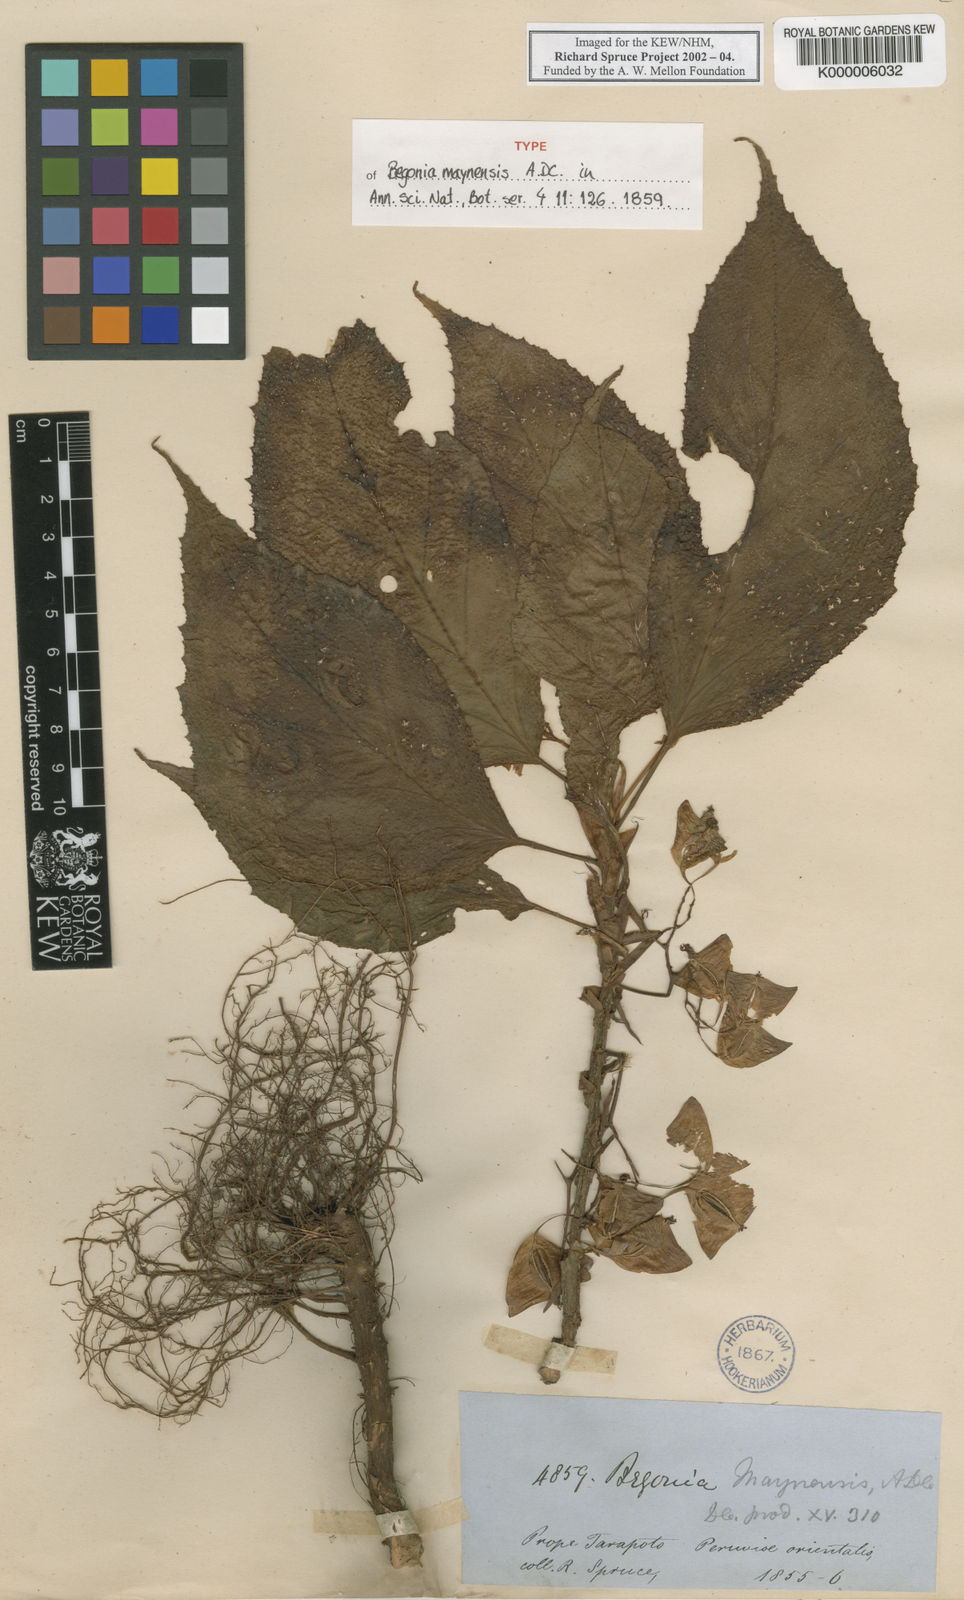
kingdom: Plantae
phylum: Tracheophyta
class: Magnoliopsida
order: Cucurbitales
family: Begoniaceae
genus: Begonia
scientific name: Begonia maynensis
